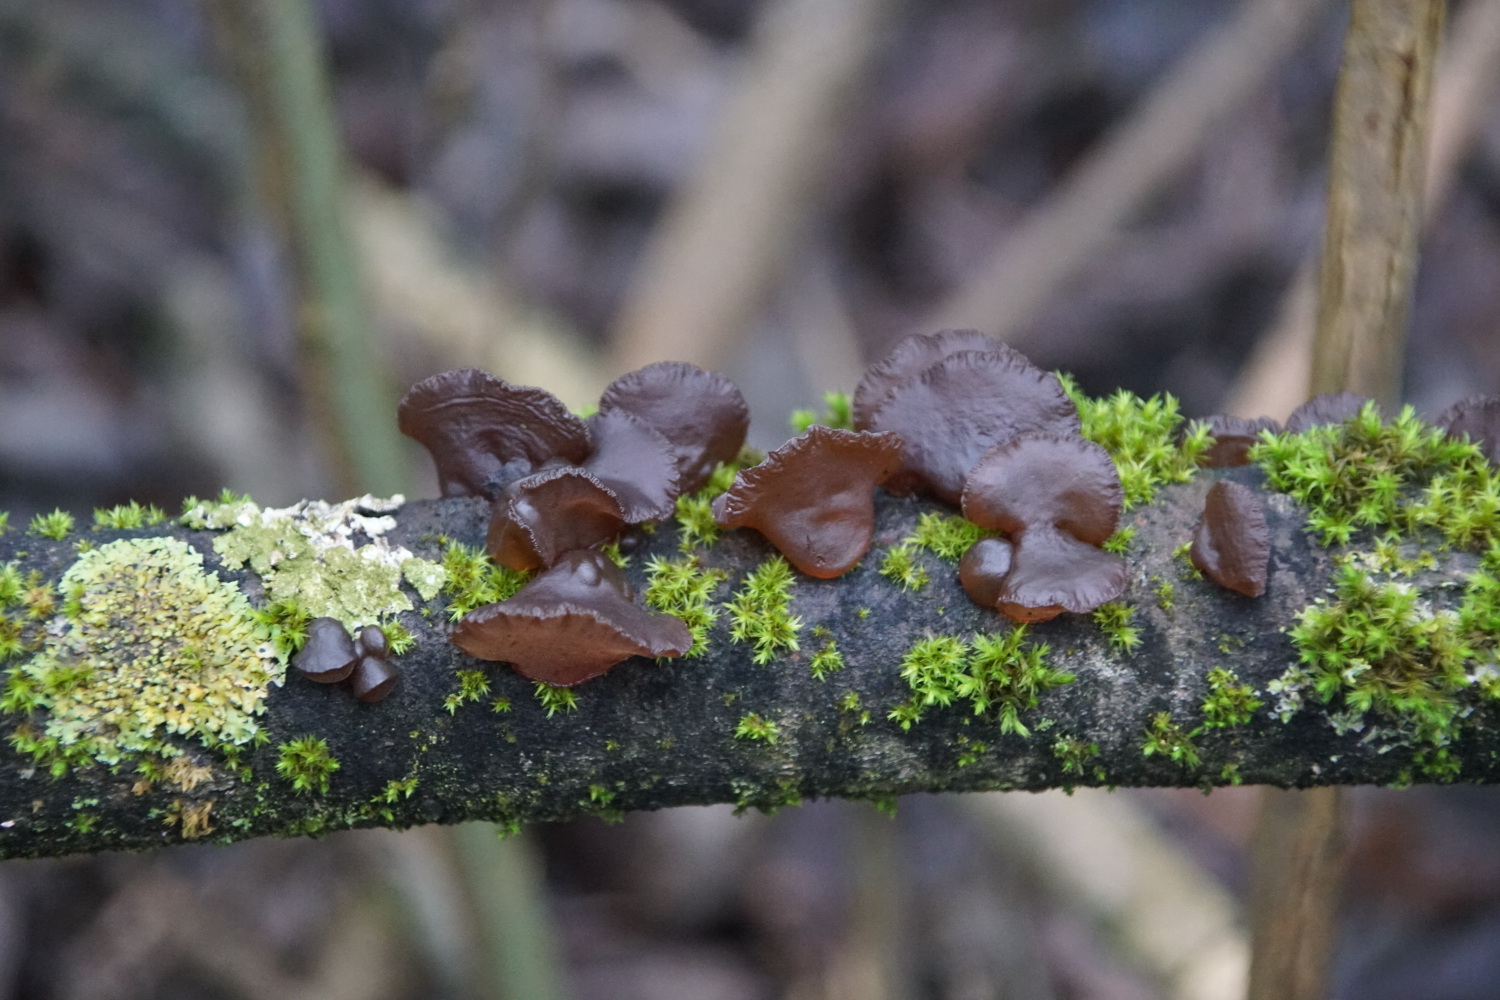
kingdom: Fungi
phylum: Basidiomycota
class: Agaricomycetes
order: Auriculariales
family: Auriculariaceae
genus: Exidia
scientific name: Exidia recisa
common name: pile-bævretop
